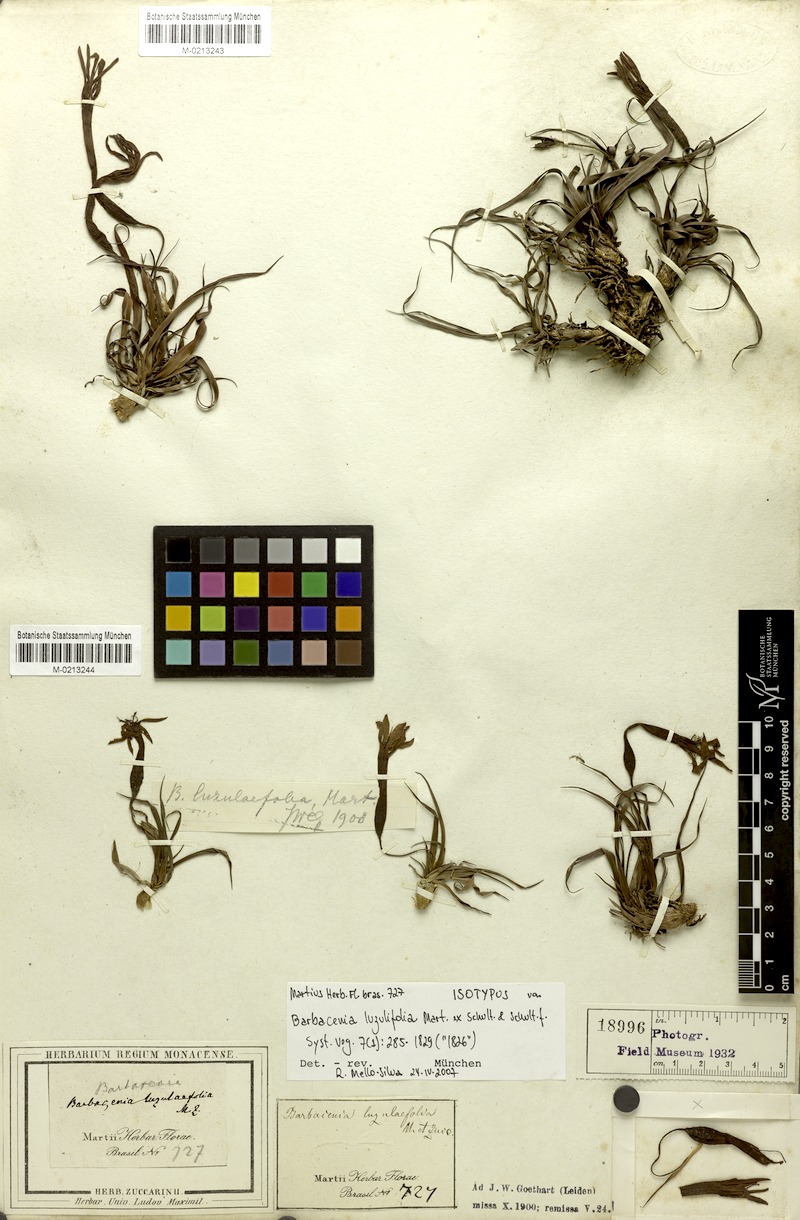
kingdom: Plantae
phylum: Tracheophyta
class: Liliopsida
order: Pandanales
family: Velloziaceae
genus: Barbacenia
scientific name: Barbacenia luzulifolia
